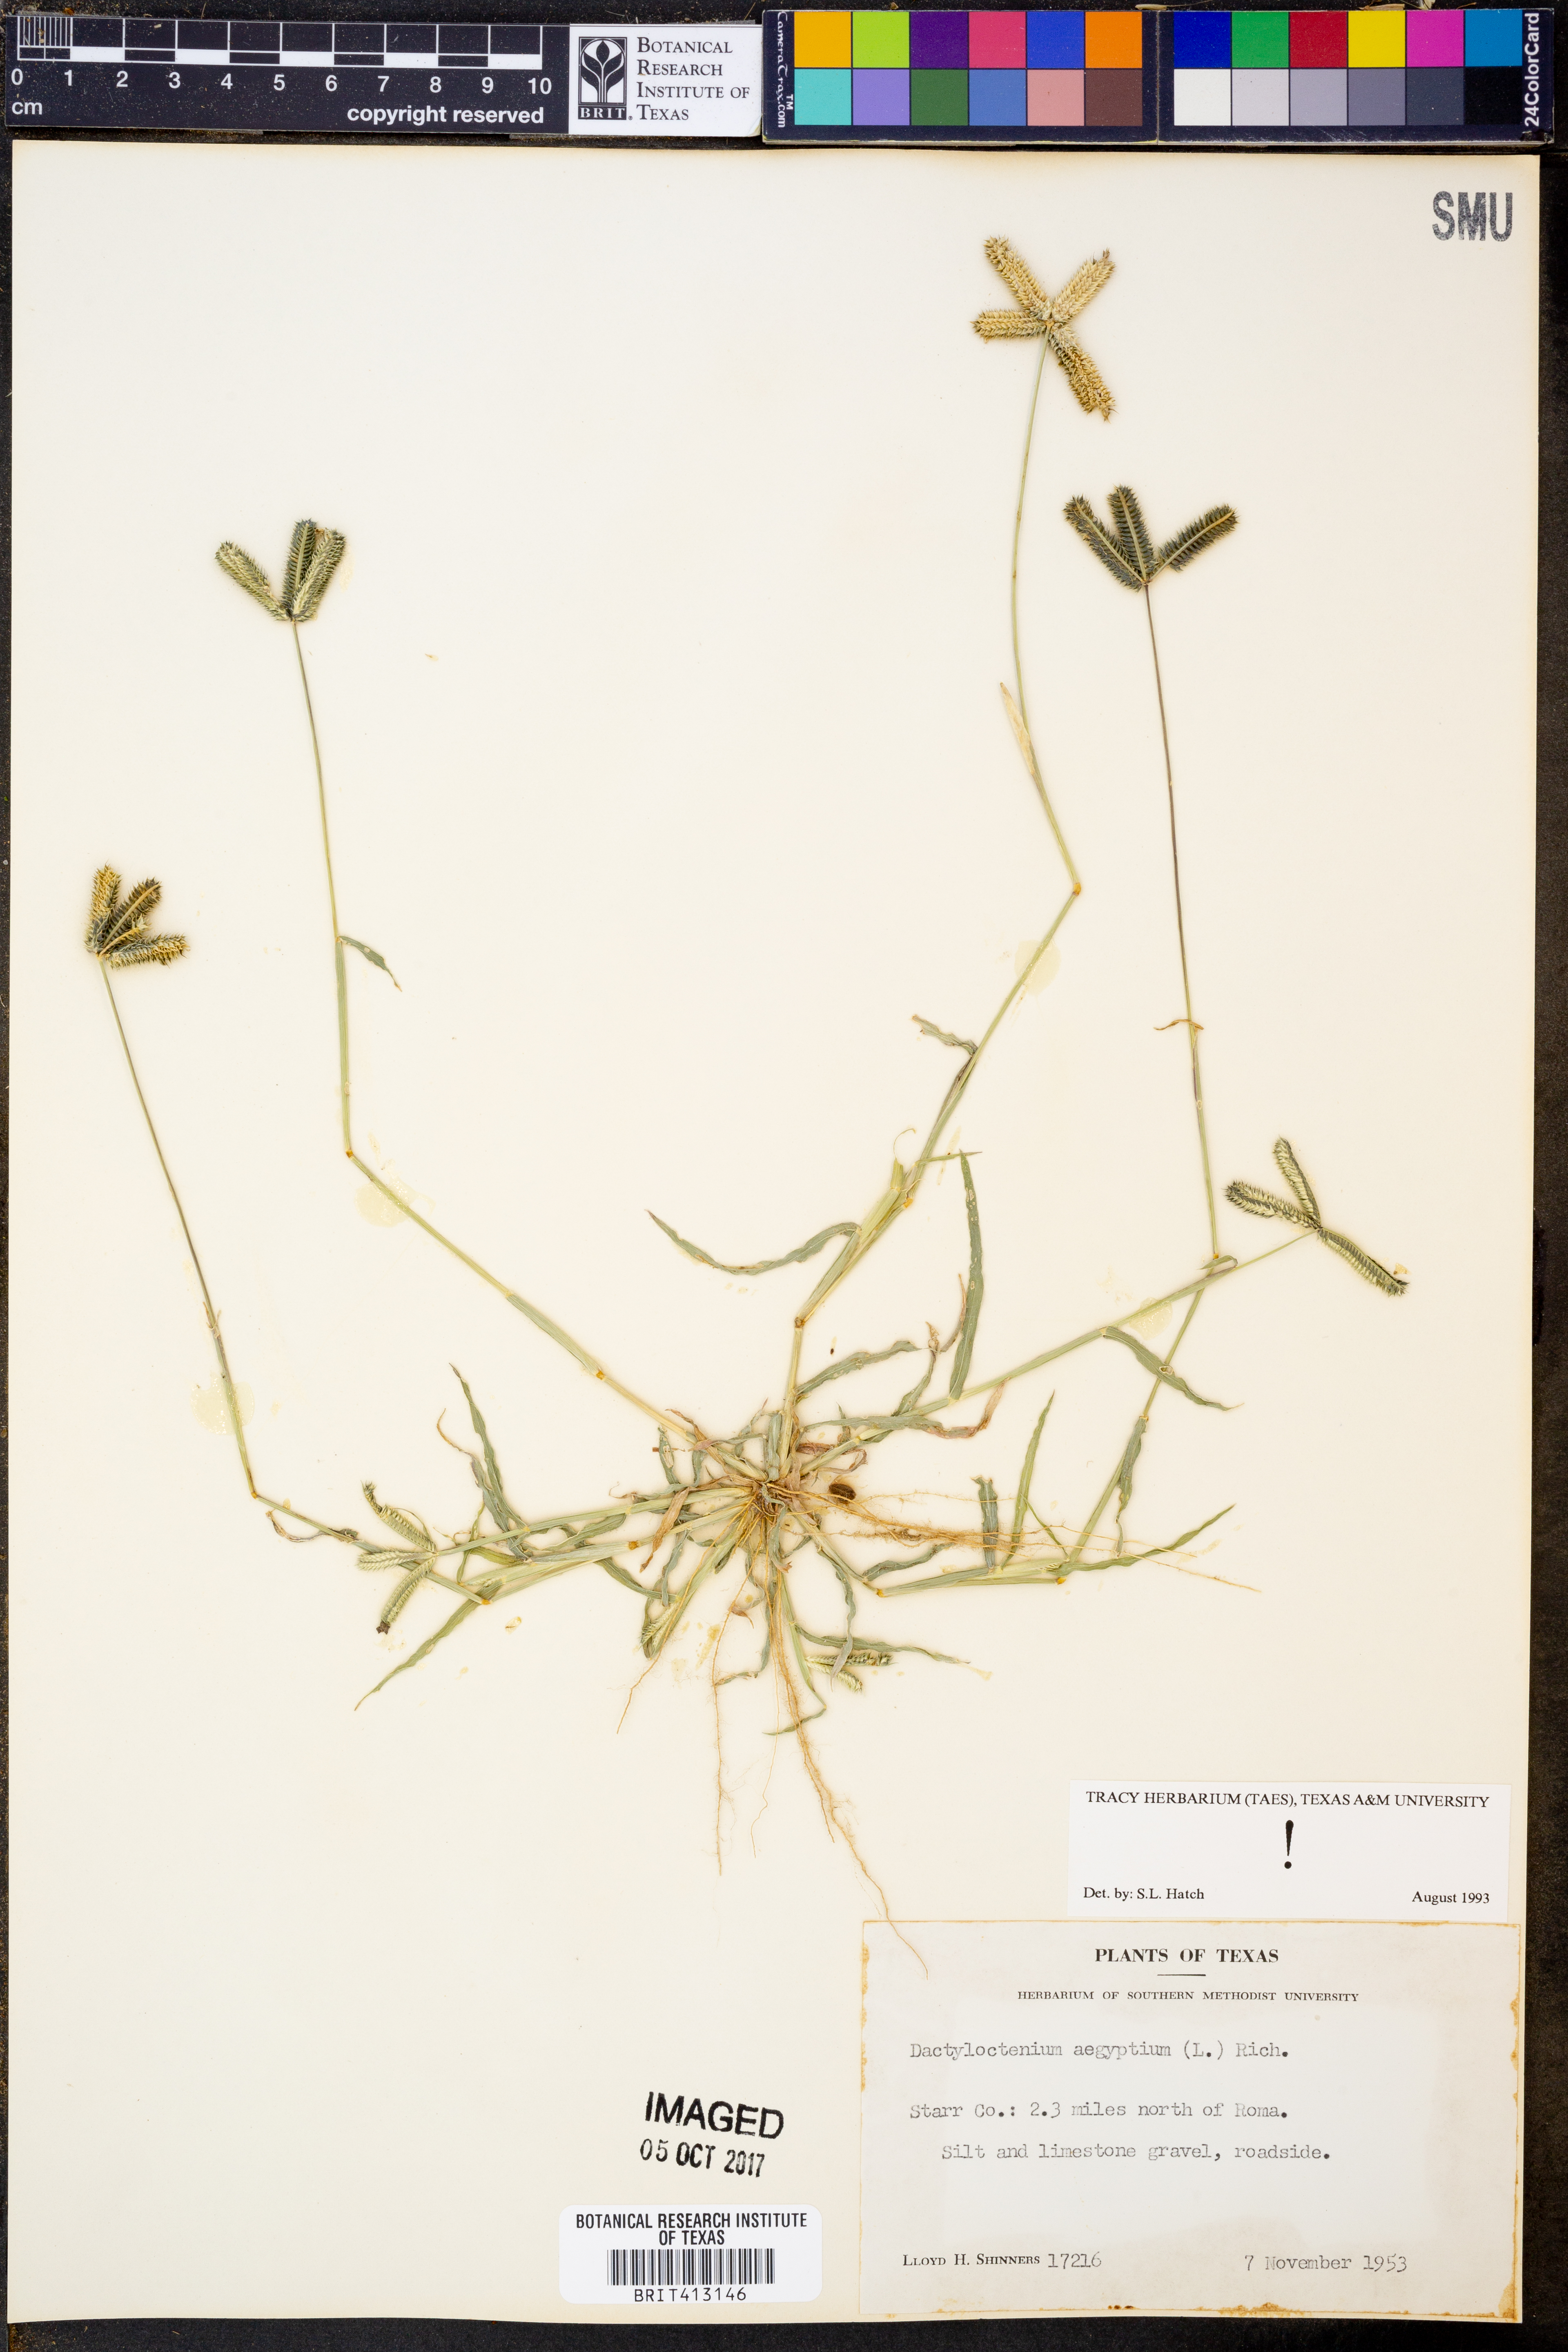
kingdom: Plantae
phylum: Tracheophyta
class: Liliopsida
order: Poales
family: Poaceae
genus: Dactyloctenium
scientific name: Dactyloctenium aegyptium
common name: Egyptian grass
